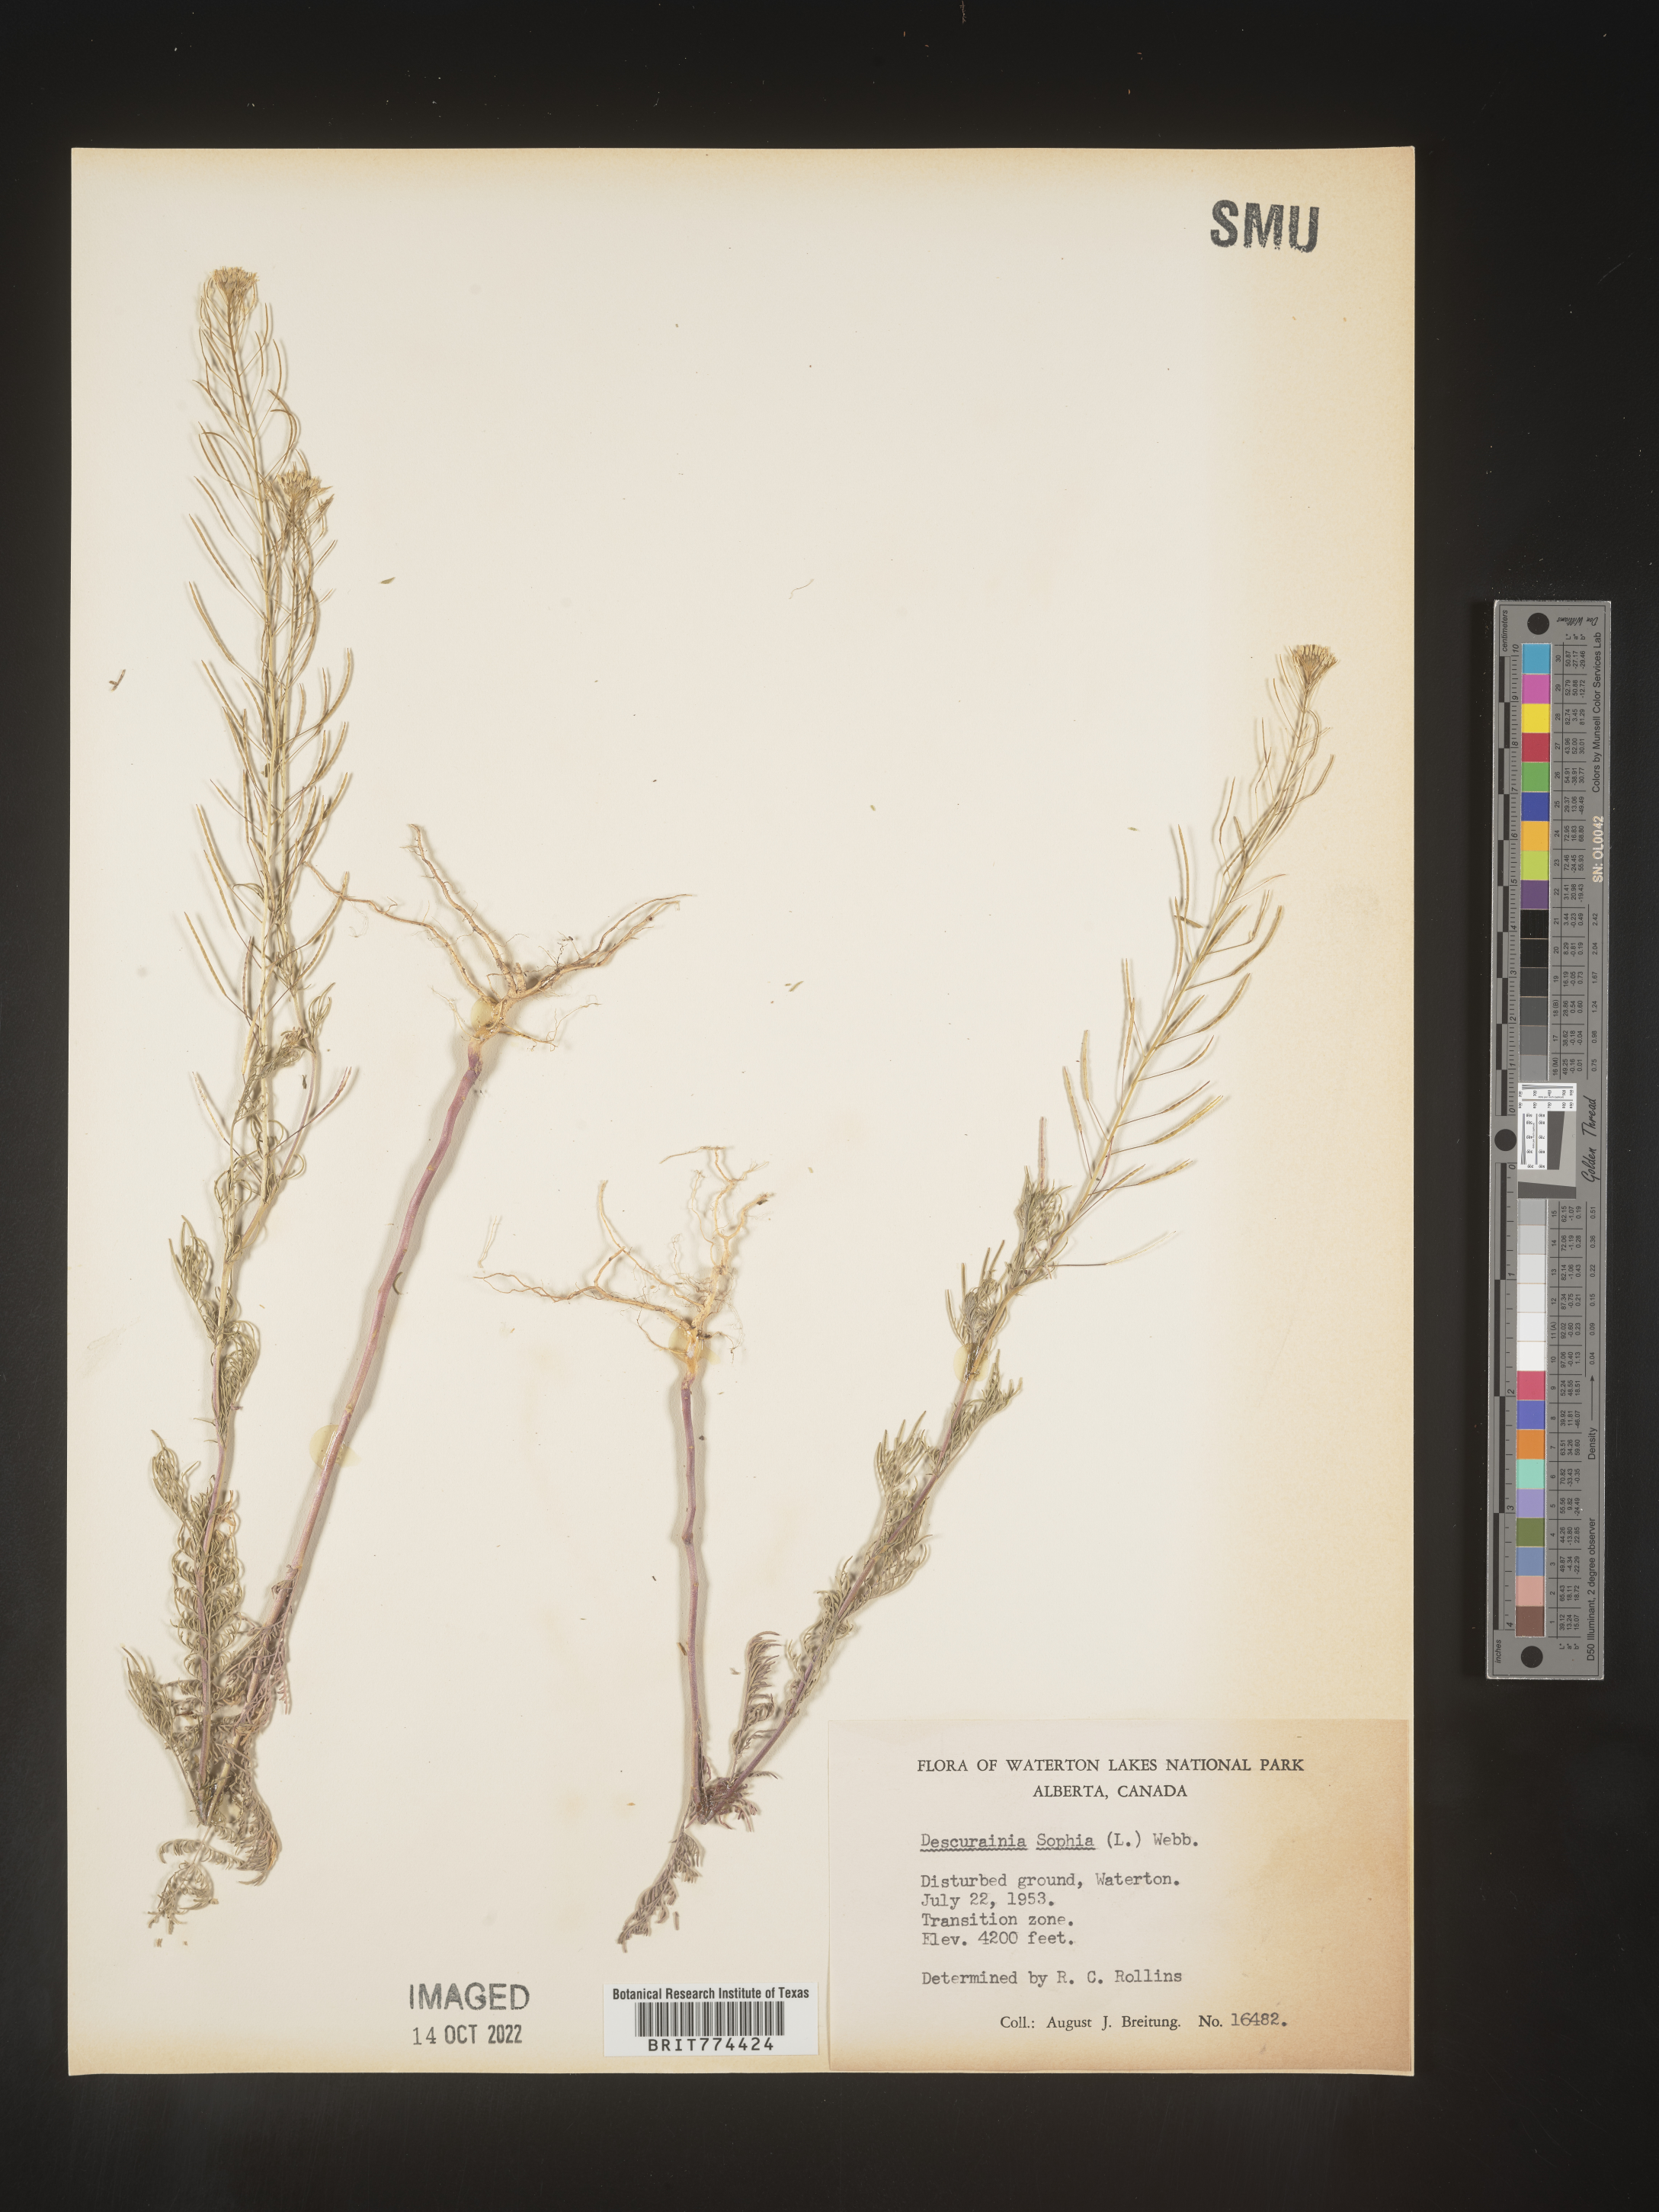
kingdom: Plantae
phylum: Tracheophyta
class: Magnoliopsida
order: Brassicales
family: Brassicaceae
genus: Descurainia
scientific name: Descurainia sophia
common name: Flixweed
